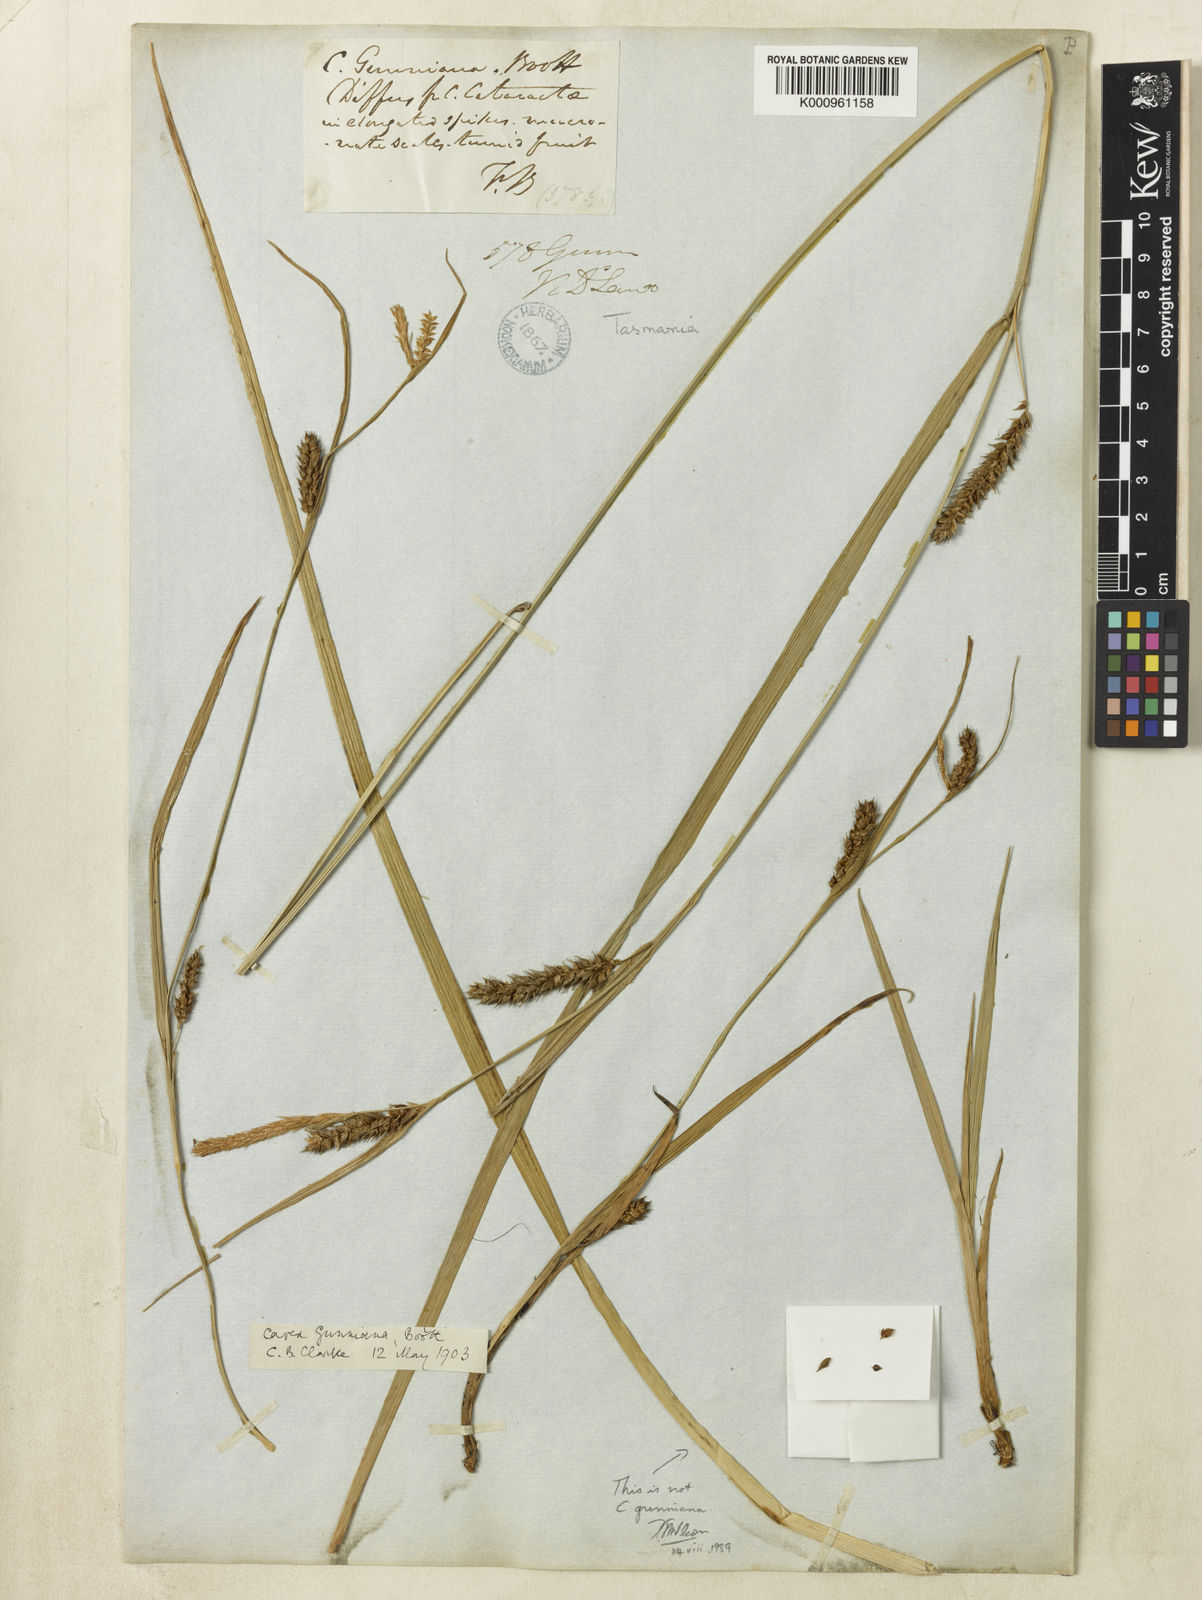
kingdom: Plantae
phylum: Tracheophyta
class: Liliopsida
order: Poales
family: Cyperaceae
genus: Carex
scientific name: Carex gunniana
